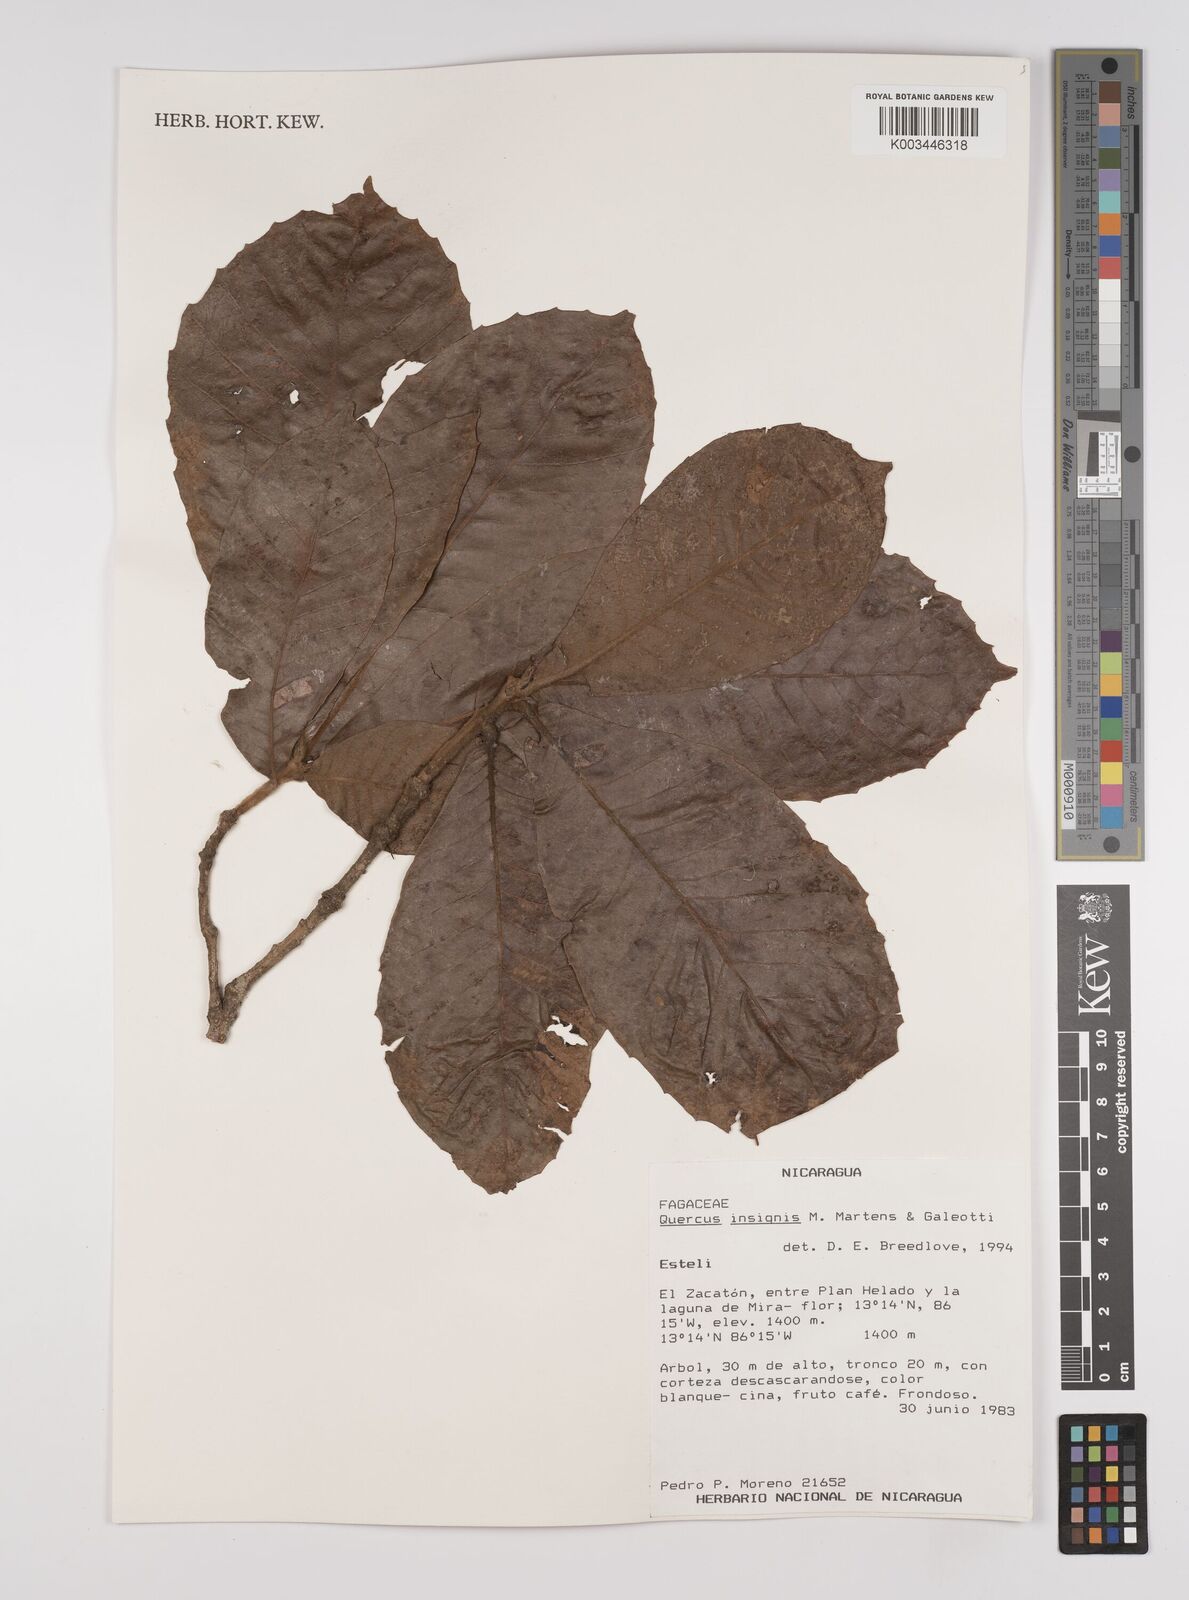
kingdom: Plantae
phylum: Tracheophyta
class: Magnoliopsida
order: Fagales
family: Fagaceae
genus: Quercus
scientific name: Quercus insignis
